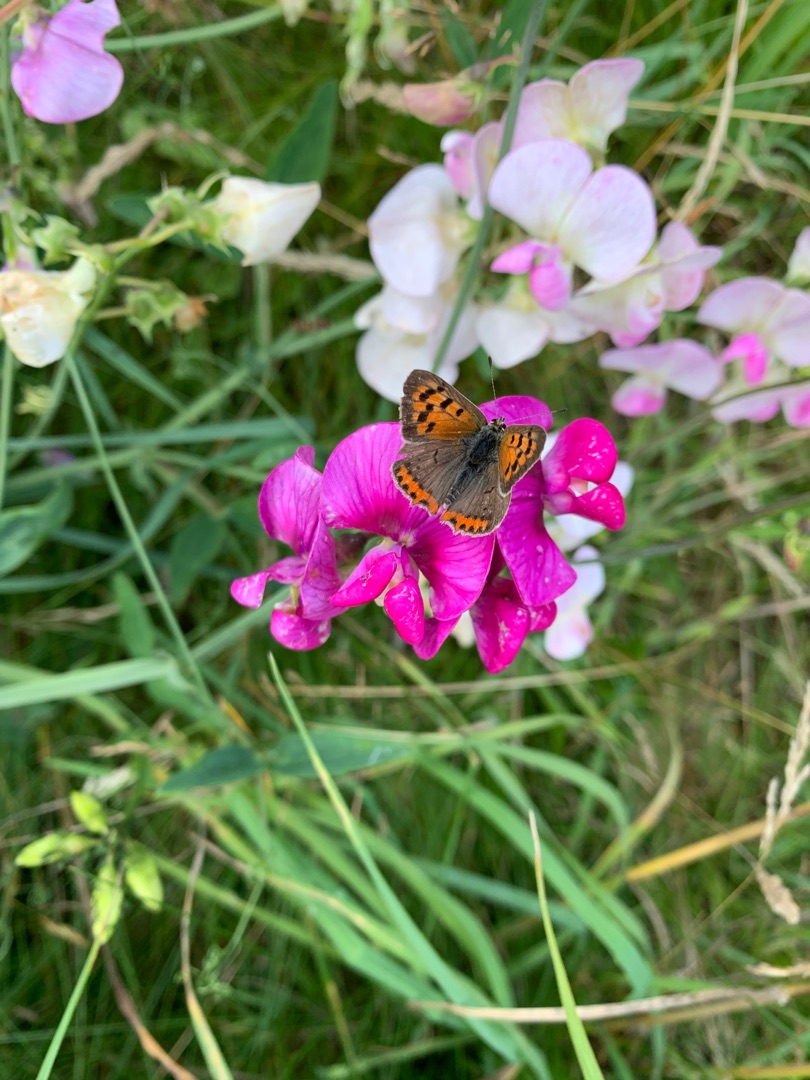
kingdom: Animalia
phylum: Arthropoda
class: Insecta
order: Lepidoptera
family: Lycaenidae
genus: Lycaena
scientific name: Lycaena phlaeas
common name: Lille ildfugl
